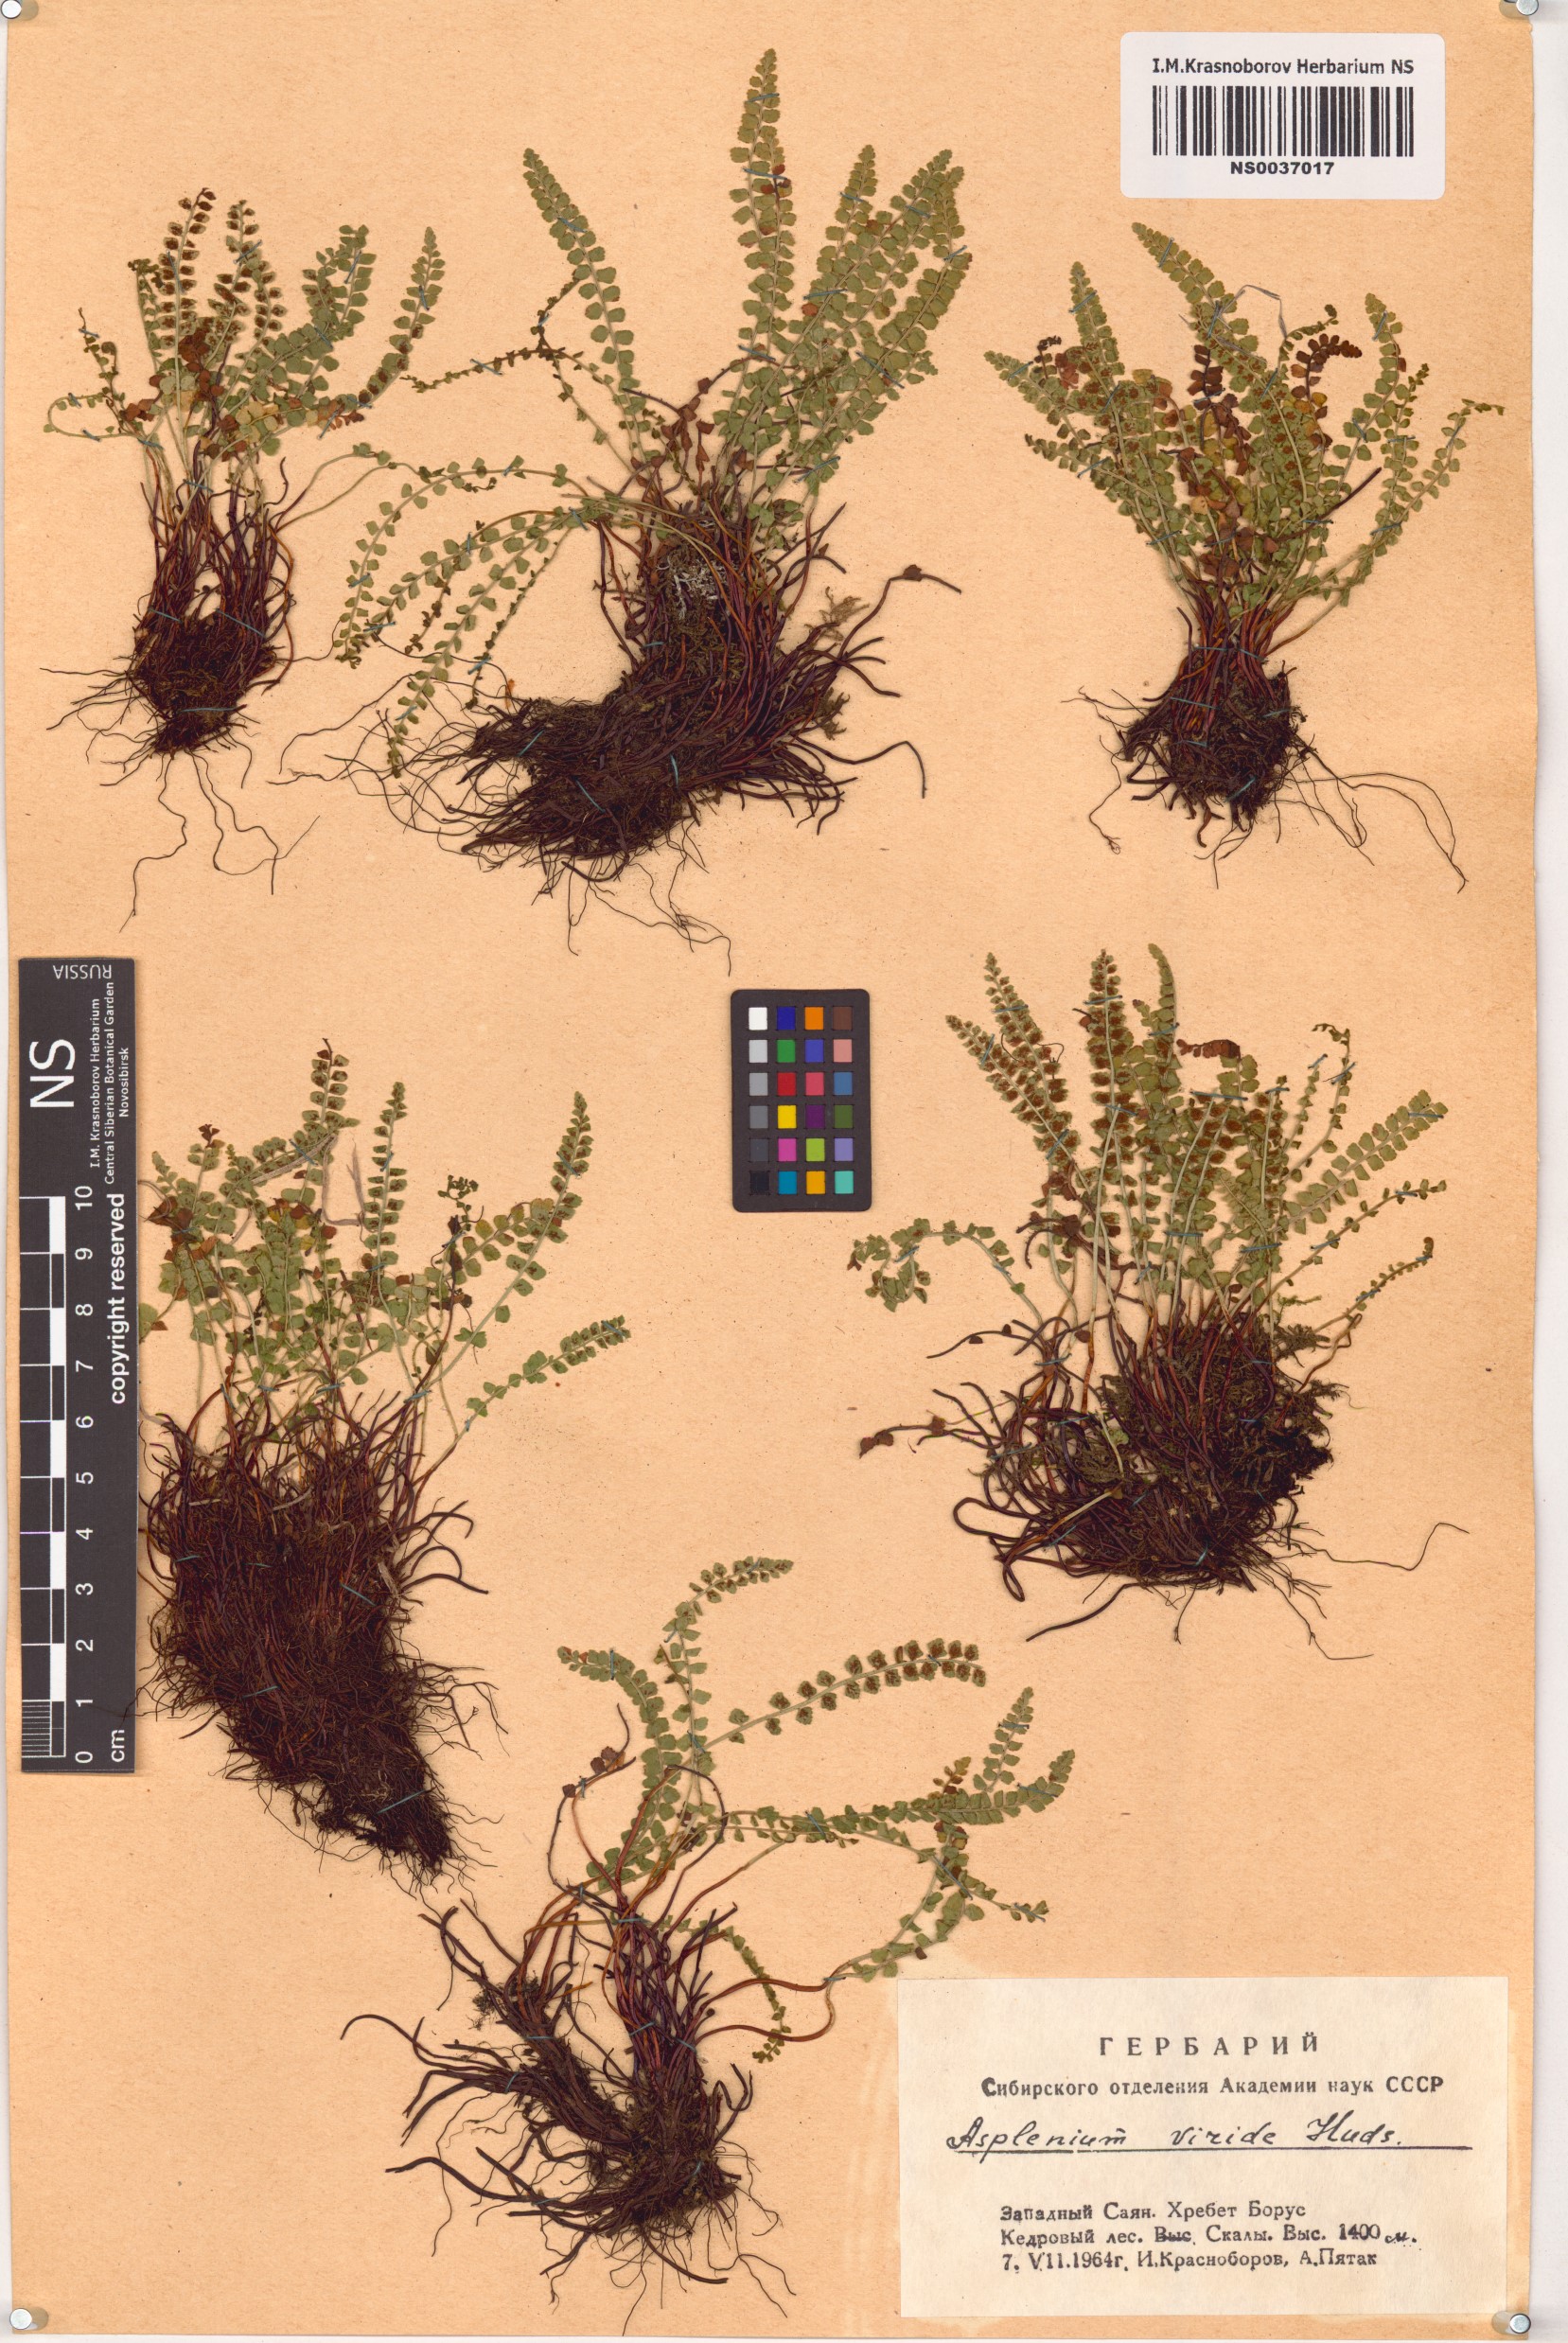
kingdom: Plantae
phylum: Tracheophyta
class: Polypodiopsida
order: Polypodiales
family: Aspleniaceae
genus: Asplenium
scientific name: Asplenium viride
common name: Green spleenwort
